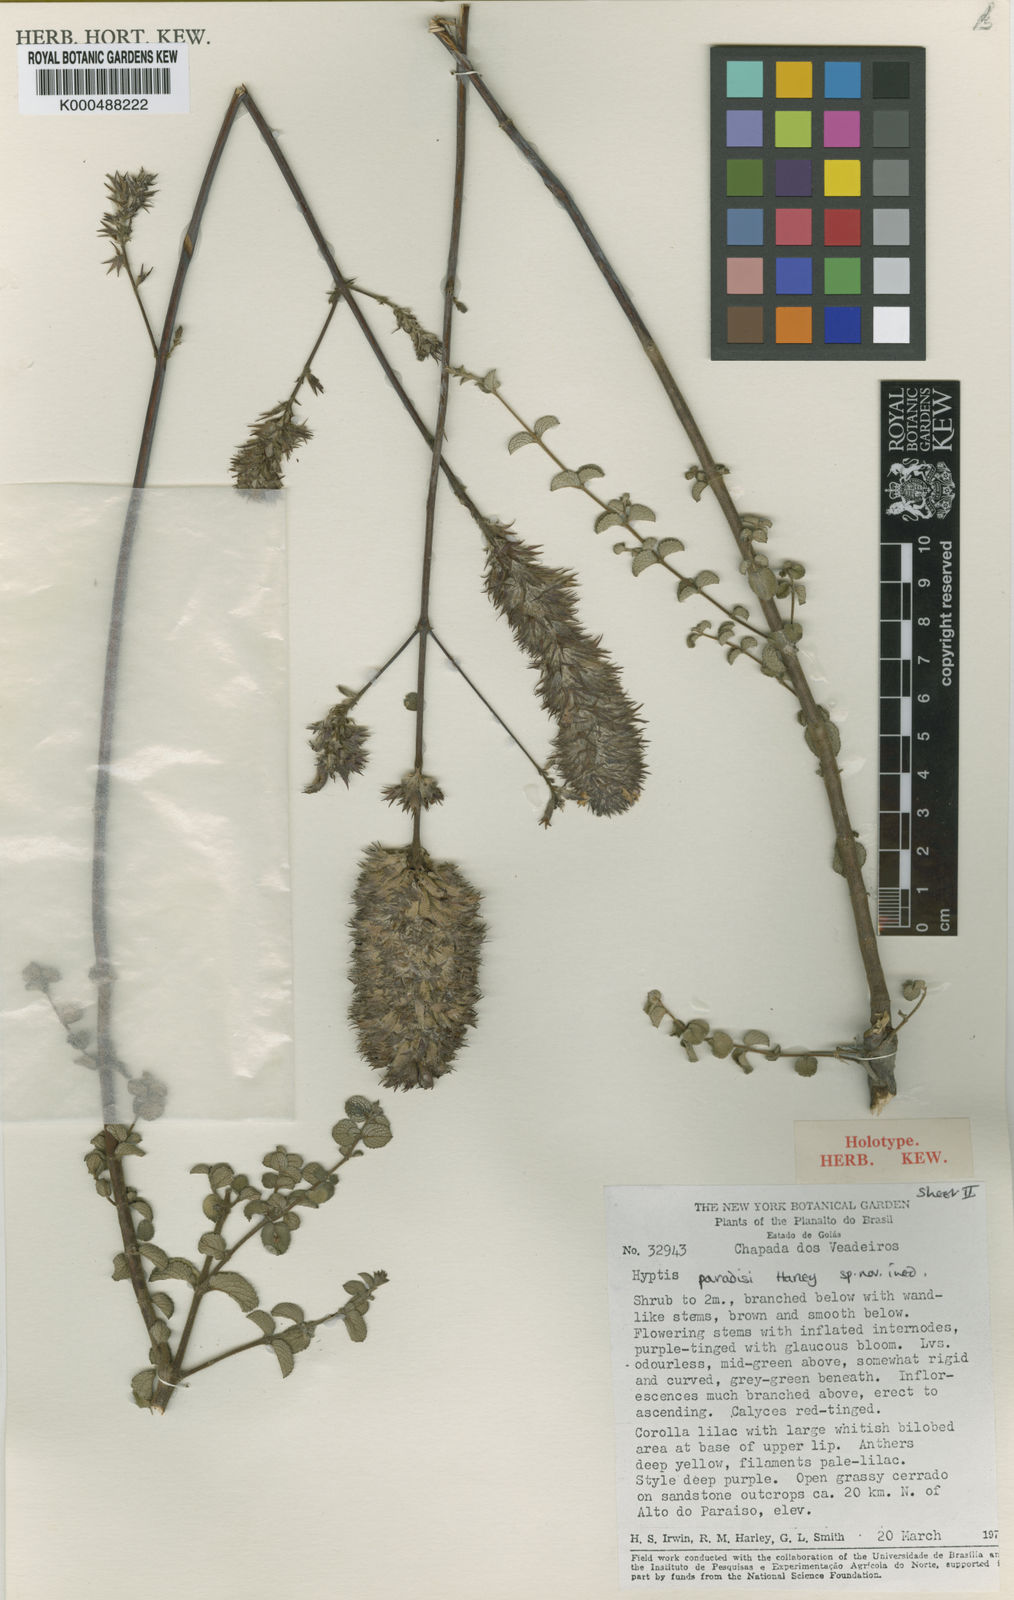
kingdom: Plantae
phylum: Tracheophyta
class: Magnoliopsida
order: Lamiales
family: Lamiaceae
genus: Hypenia
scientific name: Hypenia brachystachys
